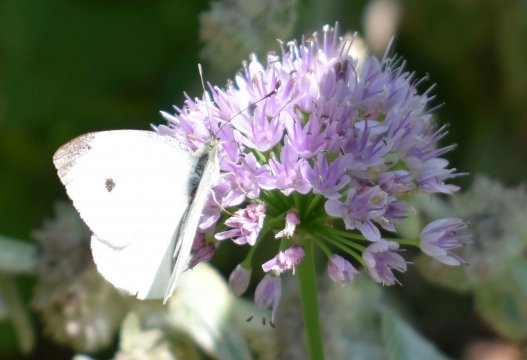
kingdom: Animalia
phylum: Arthropoda
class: Insecta
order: Lepidoptera
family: Pieridae
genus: Pieris
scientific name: Pieris rapae
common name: Cabbage White
